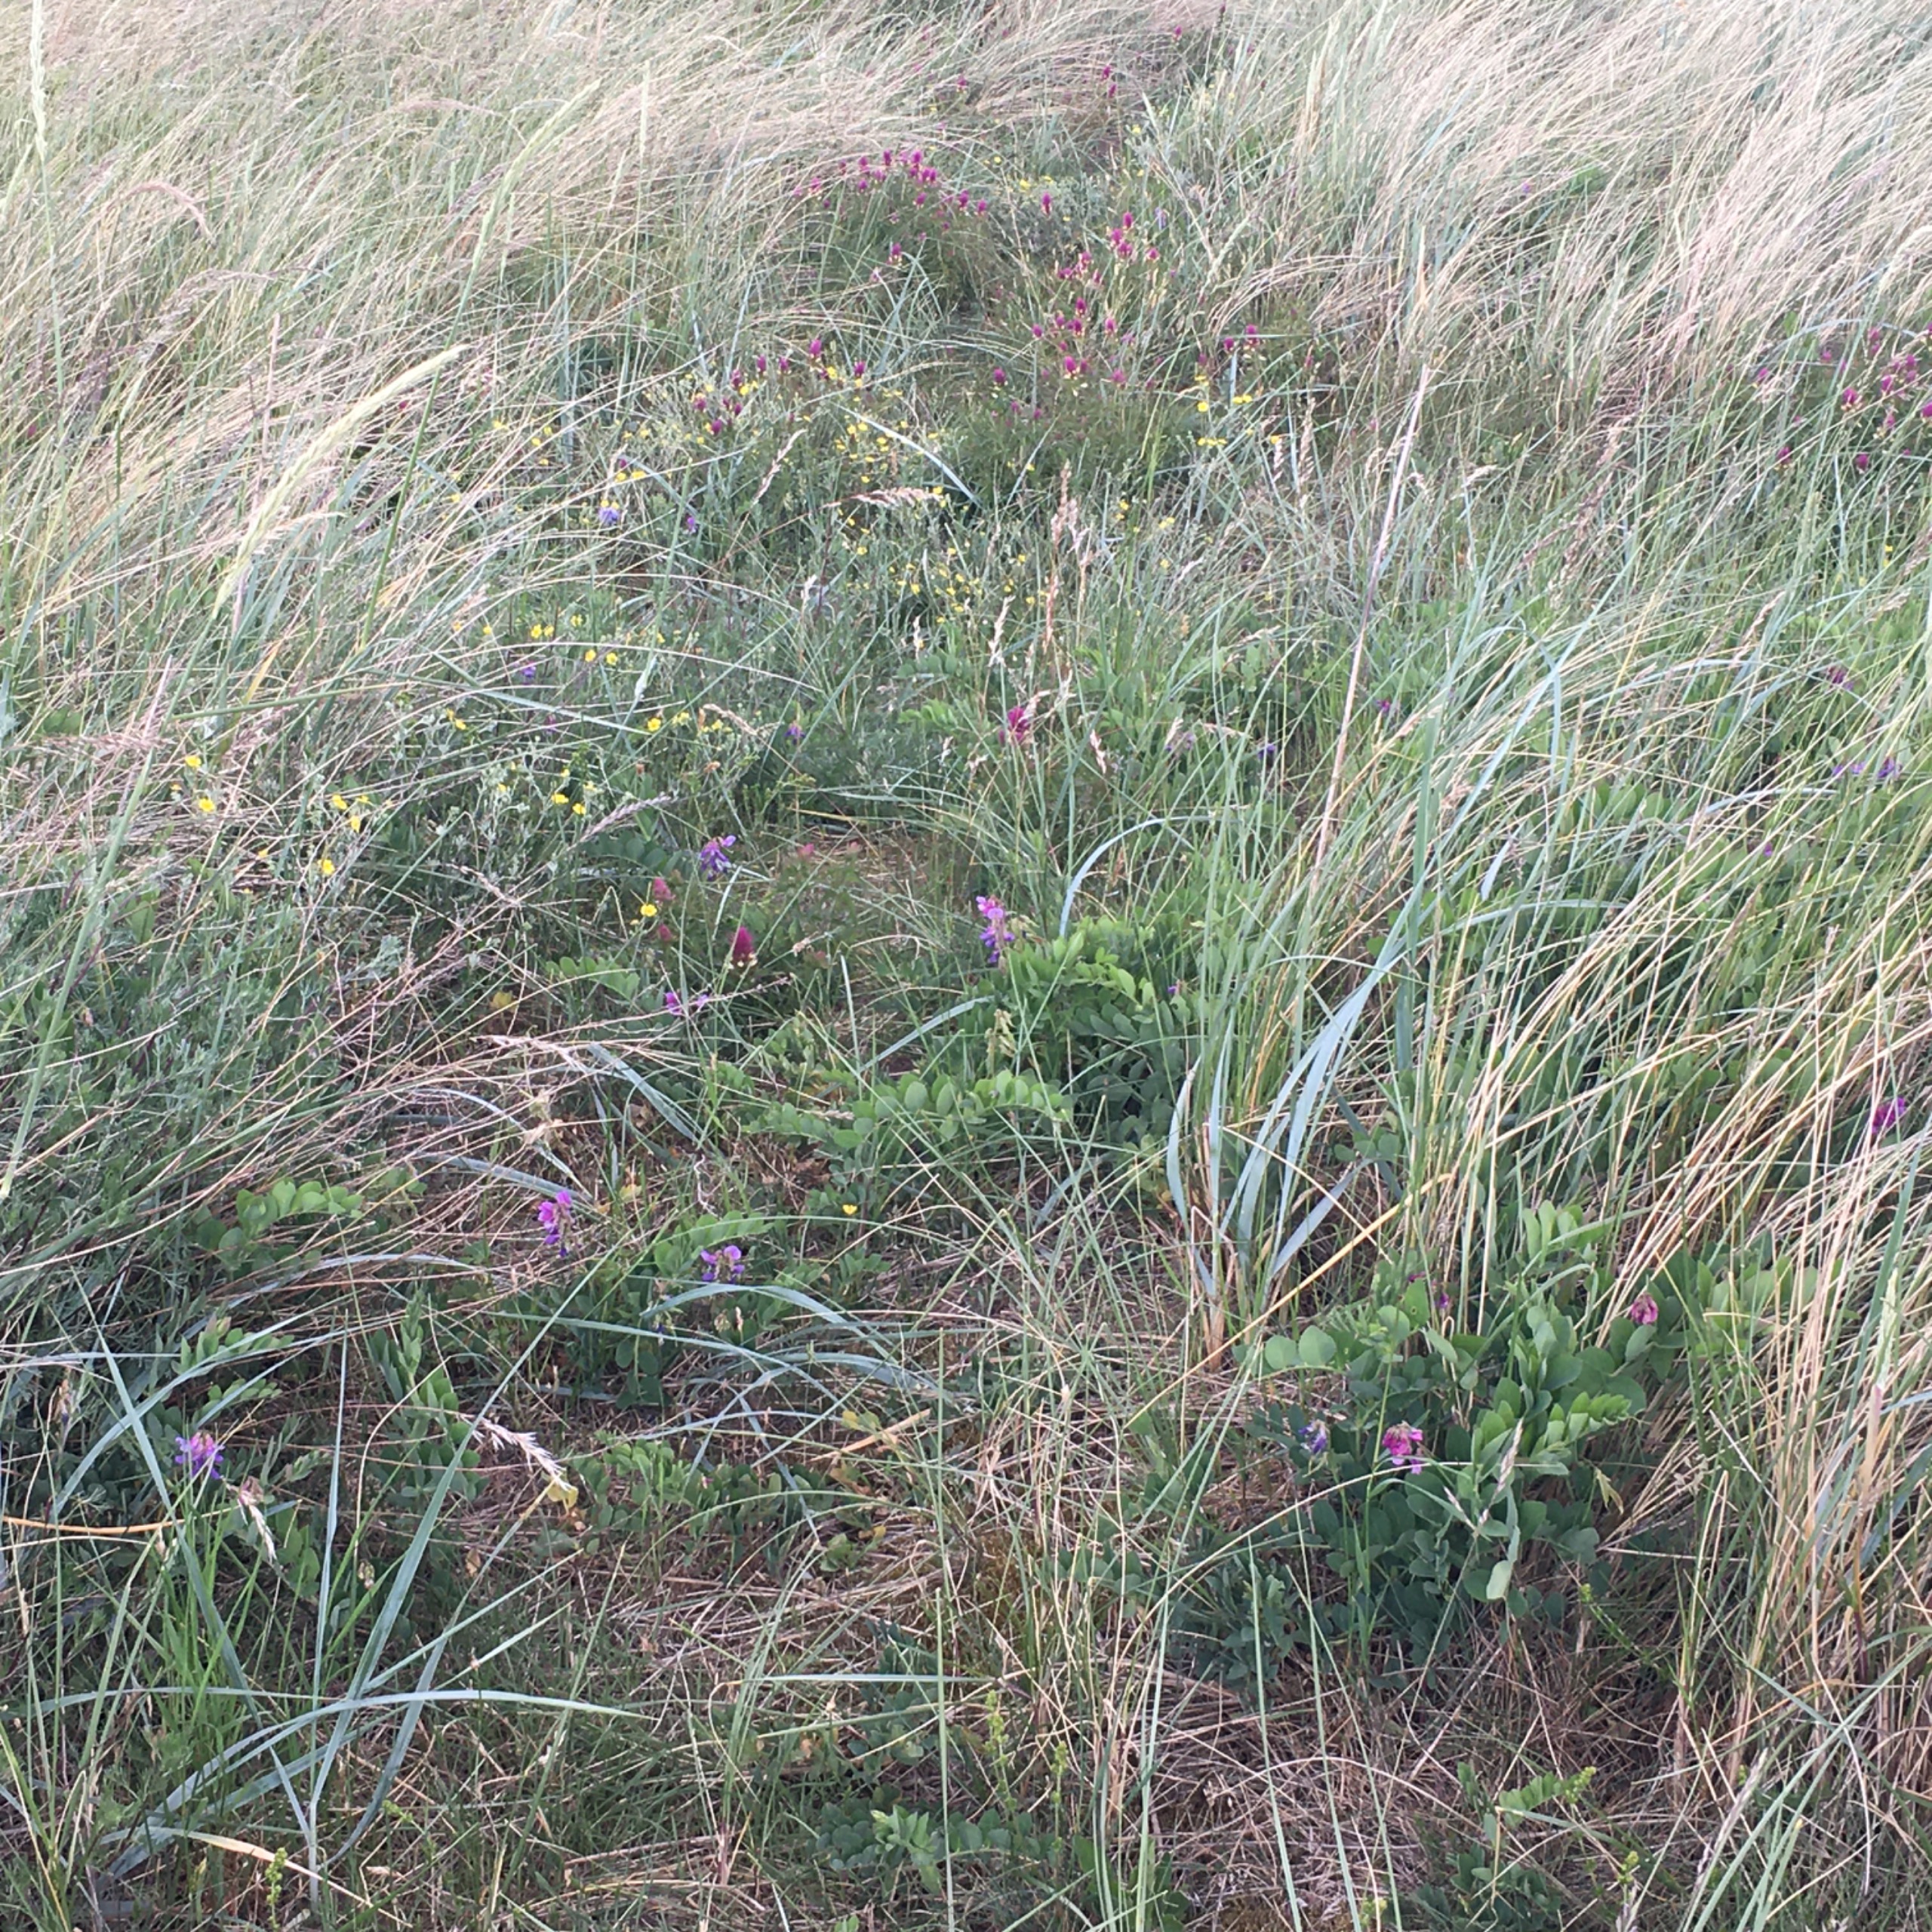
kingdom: Plantae
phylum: Tracheophyta
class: Magnoliopsida
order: Lamiales
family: Orobanchaceae
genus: Melampyrum
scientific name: Melampyrum arvense
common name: Ager-kohvede
